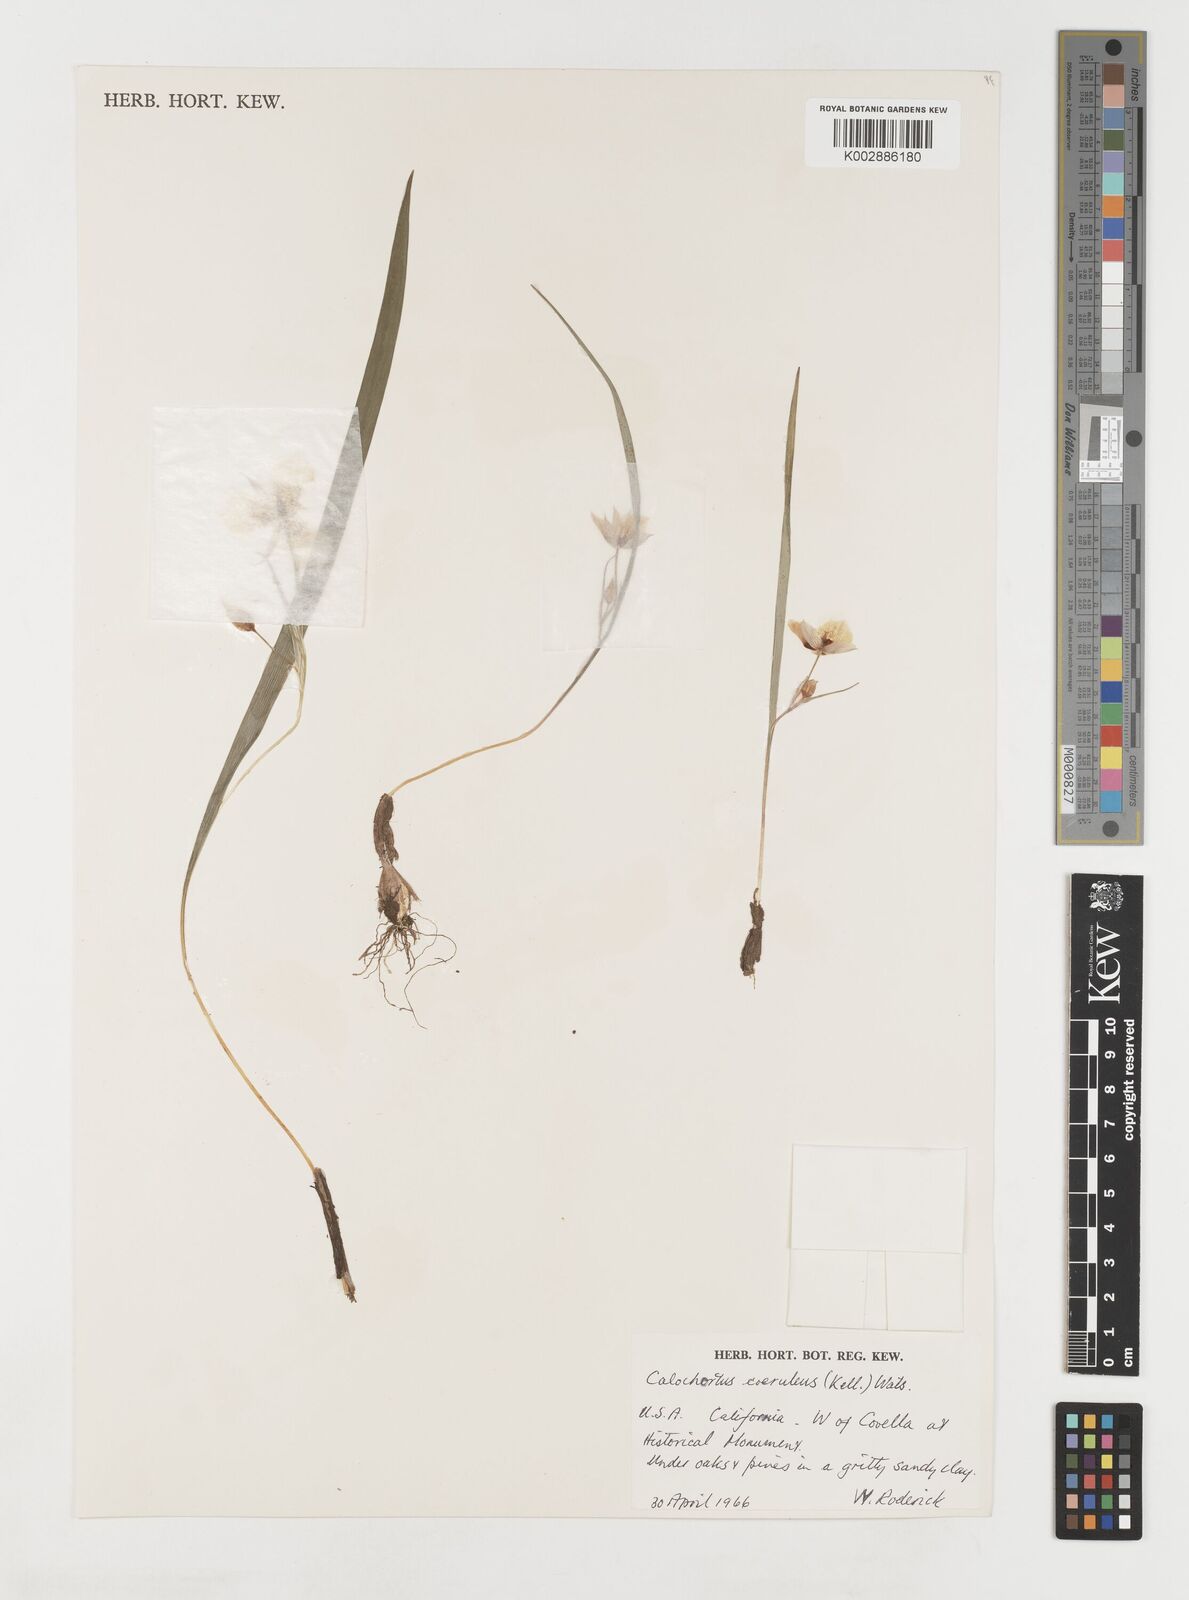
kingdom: Plantae
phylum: Tracheophyta
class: Liliopsida
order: Liliales
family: Liliaceae
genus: Calochortus
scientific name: Calochortus coeruleus
